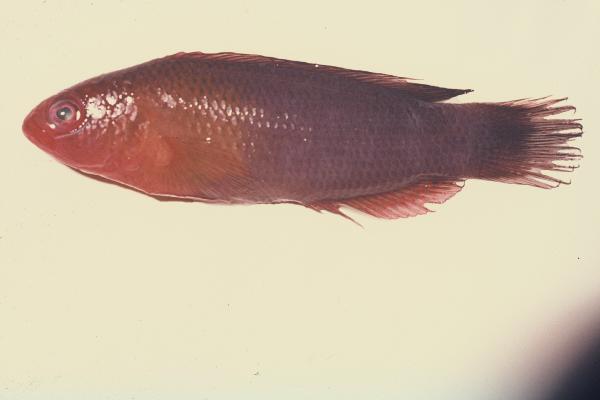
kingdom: Animalia
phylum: Chordata
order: Perciformes
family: Pseudochromidae
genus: Pseudochromis
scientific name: Pseudochromis
